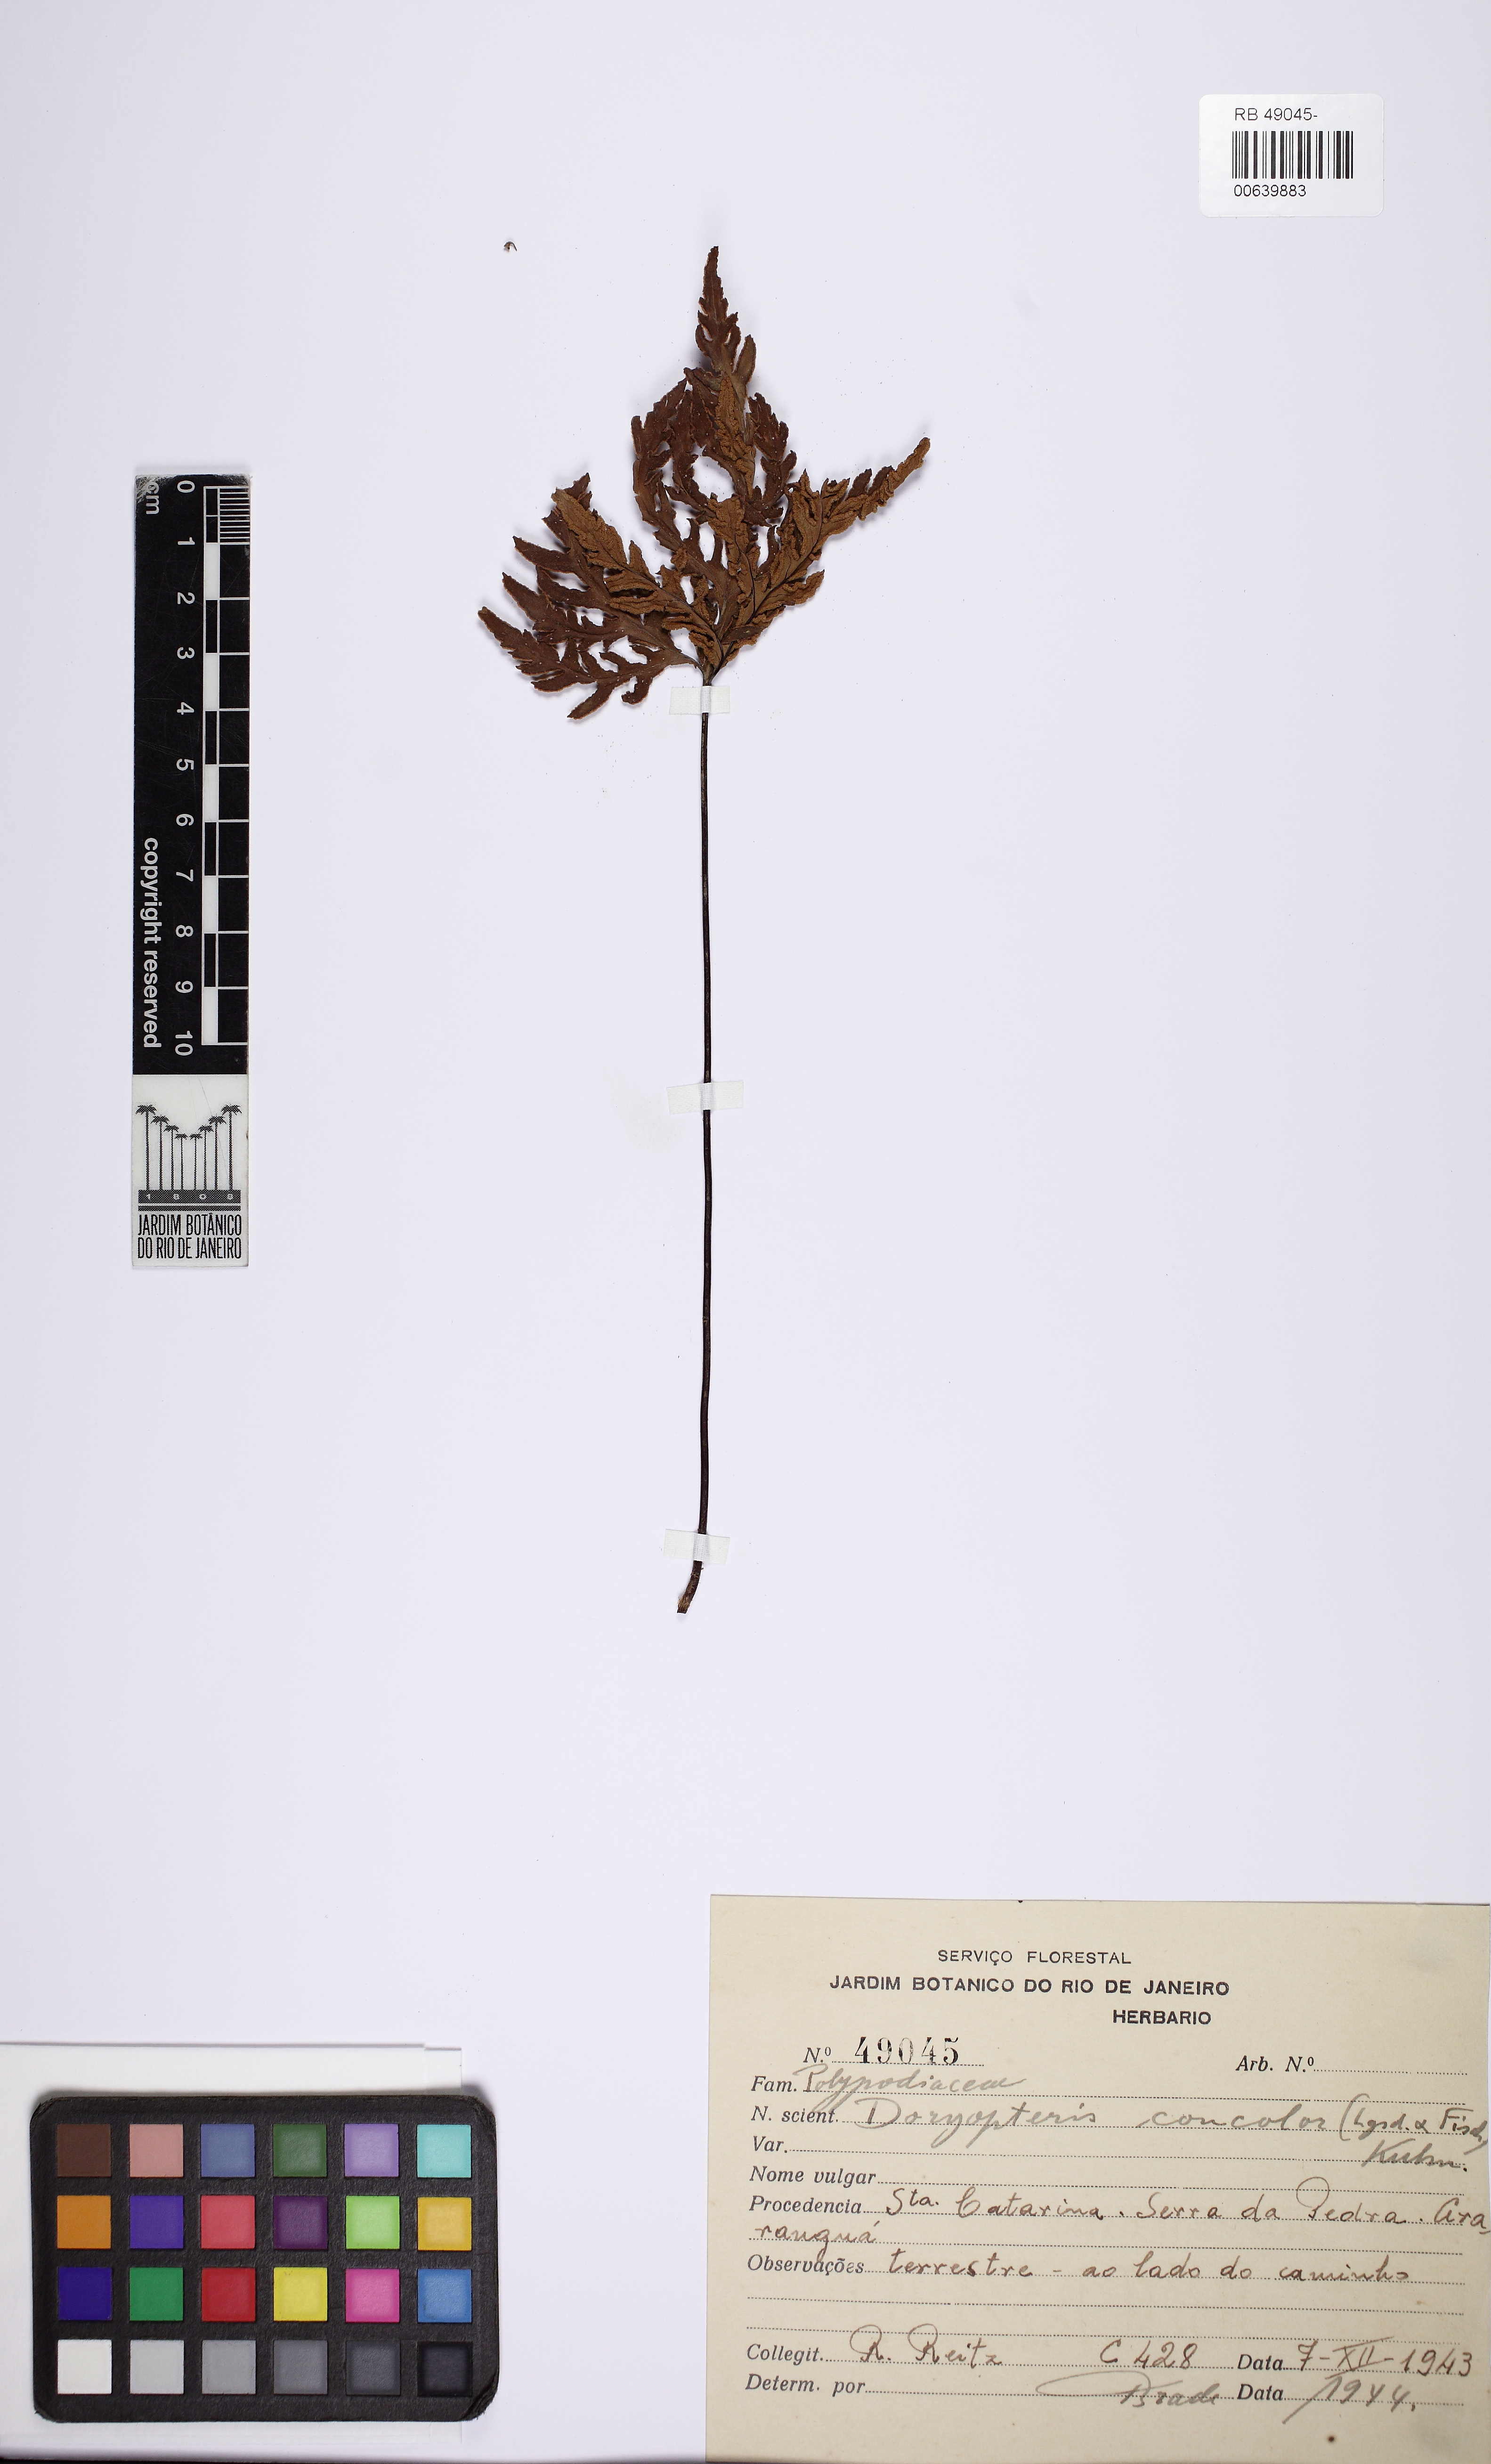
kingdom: Plantae
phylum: Tracheophyta
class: Polypodiopsida
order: Polypodiales
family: Pteridaceae
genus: Doryopteris
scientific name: Doryopteris concolor
